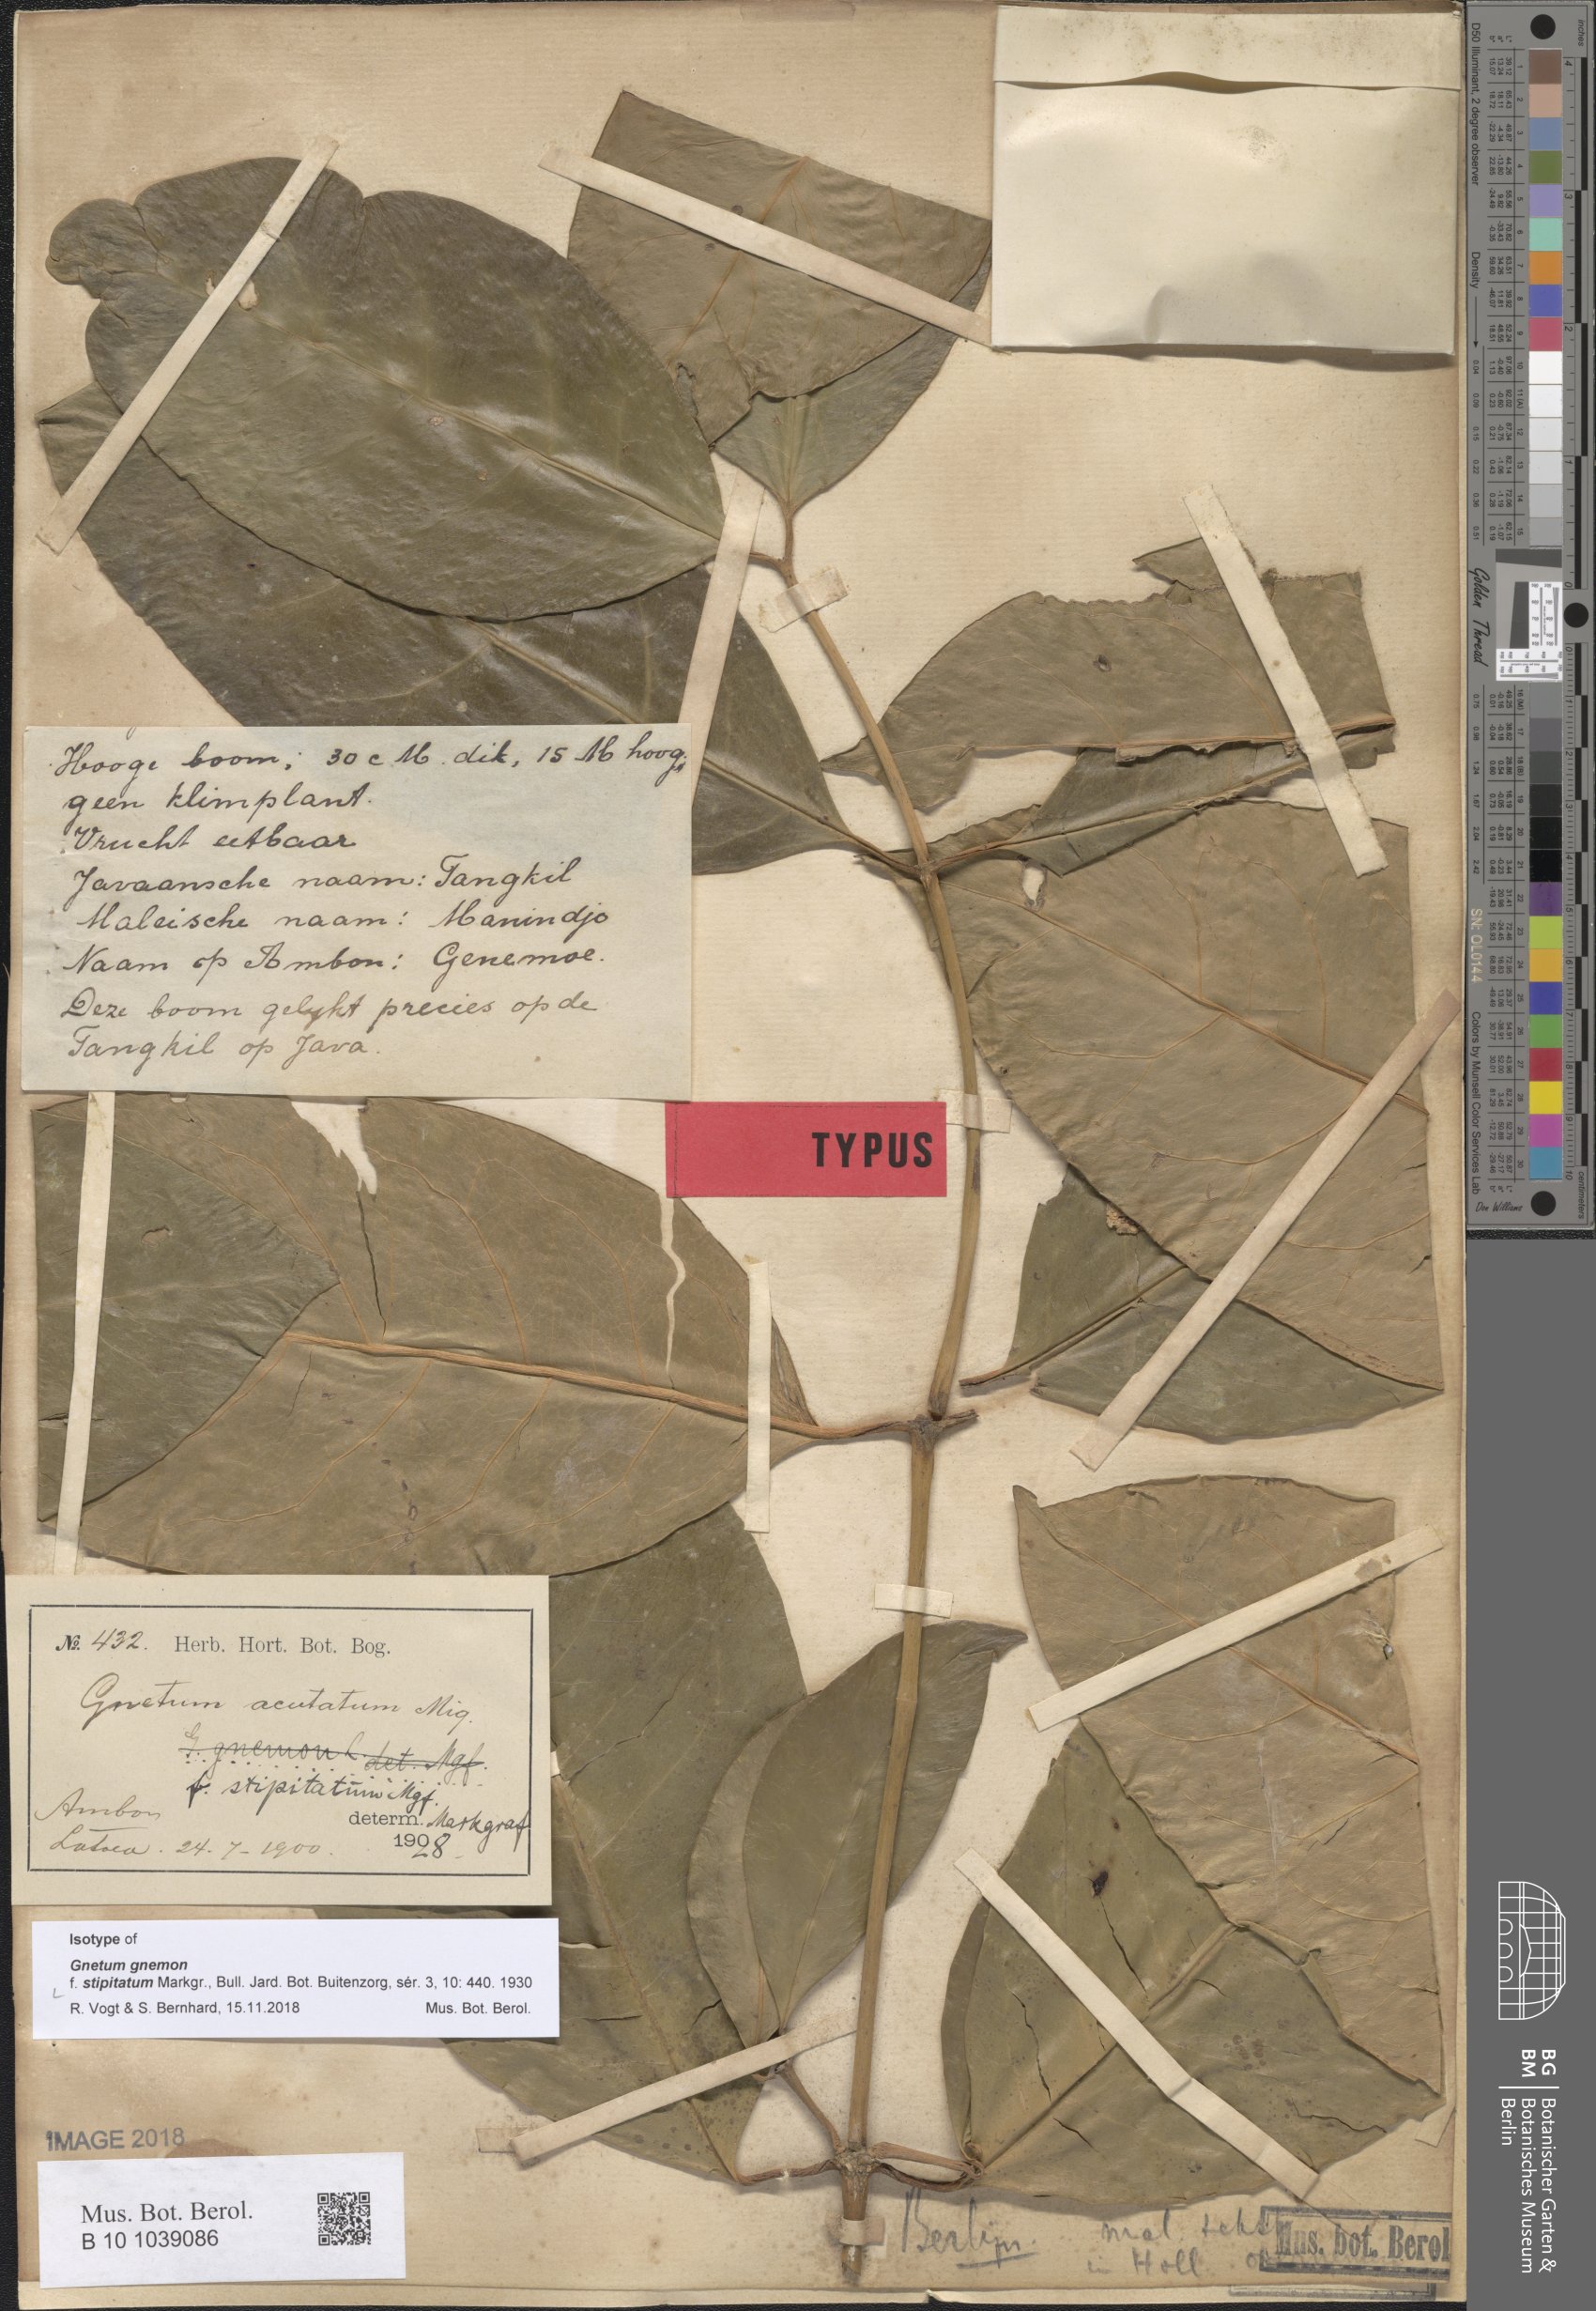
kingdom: Plantae
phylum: Tracheophyta
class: Gnetopsida
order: Gnetales
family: Gnetaceae
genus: Gnetum
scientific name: Gnetum gnemon
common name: Spanish joint-fir
